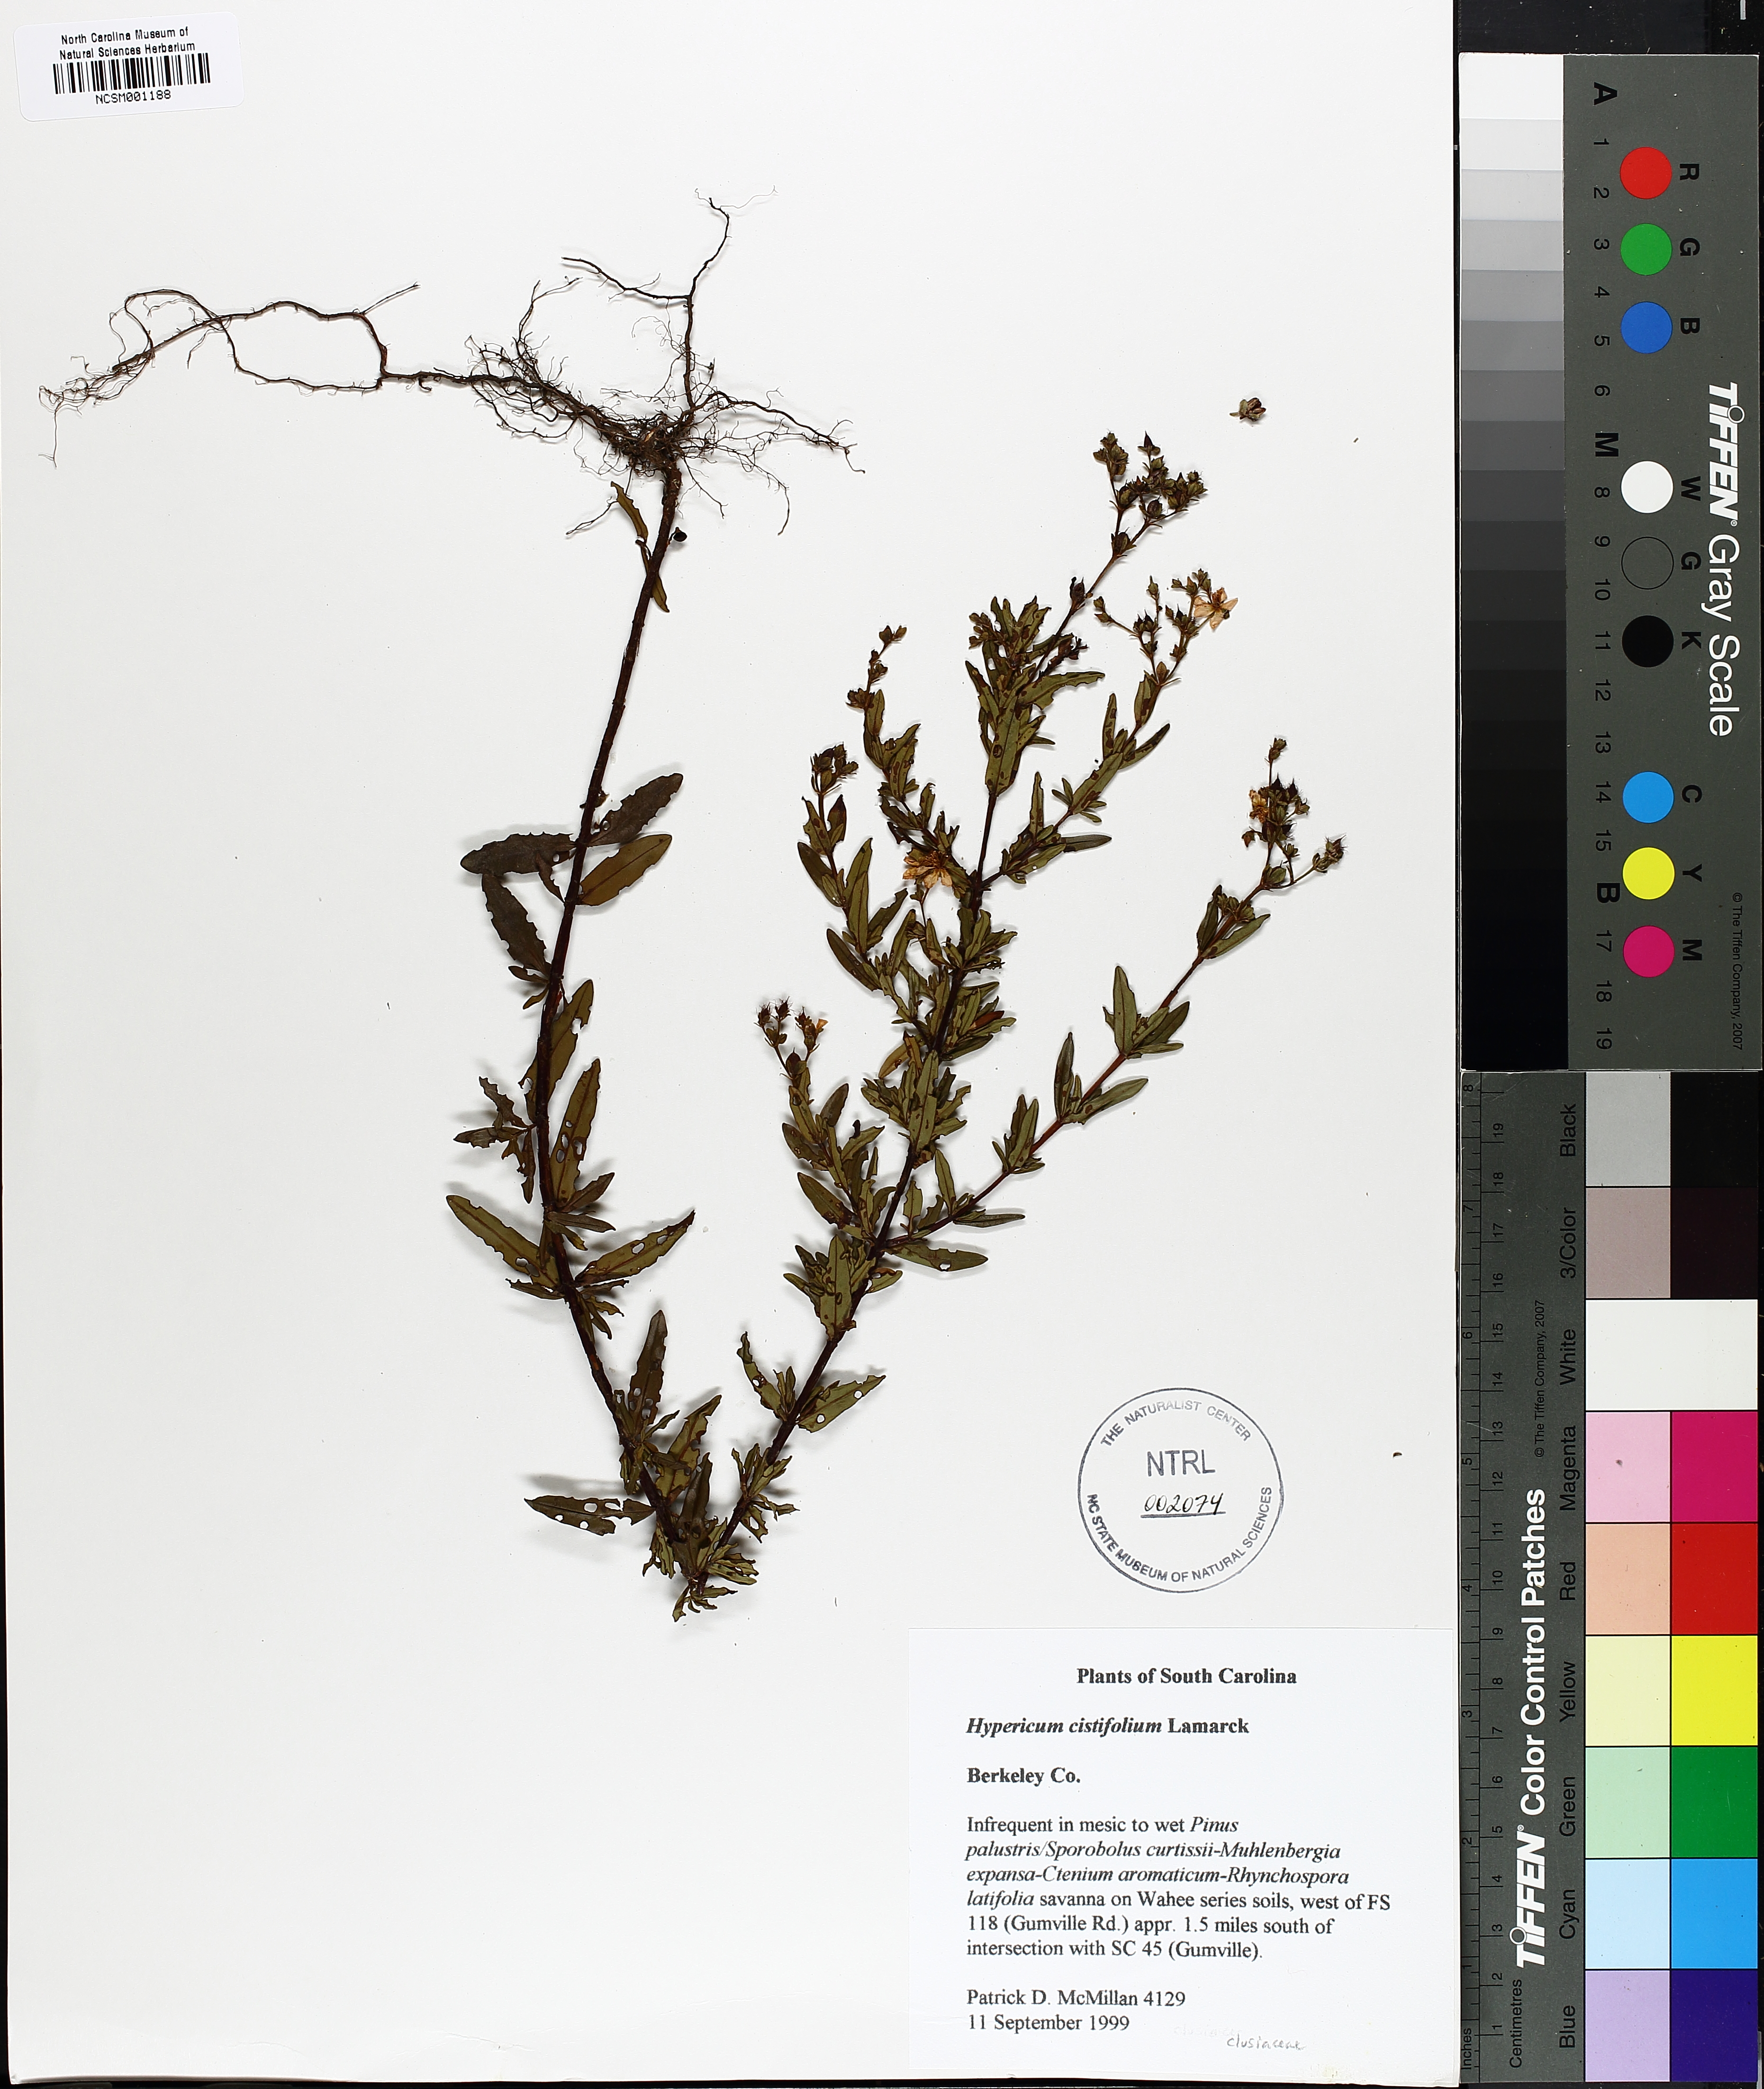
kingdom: Plantae
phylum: Tracheophyta
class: Magnoliopsida
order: Malpighiales
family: Hypericaceae
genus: Hypericum
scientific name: Hypericum cistifolium
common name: Round-pod st. john's-wort
